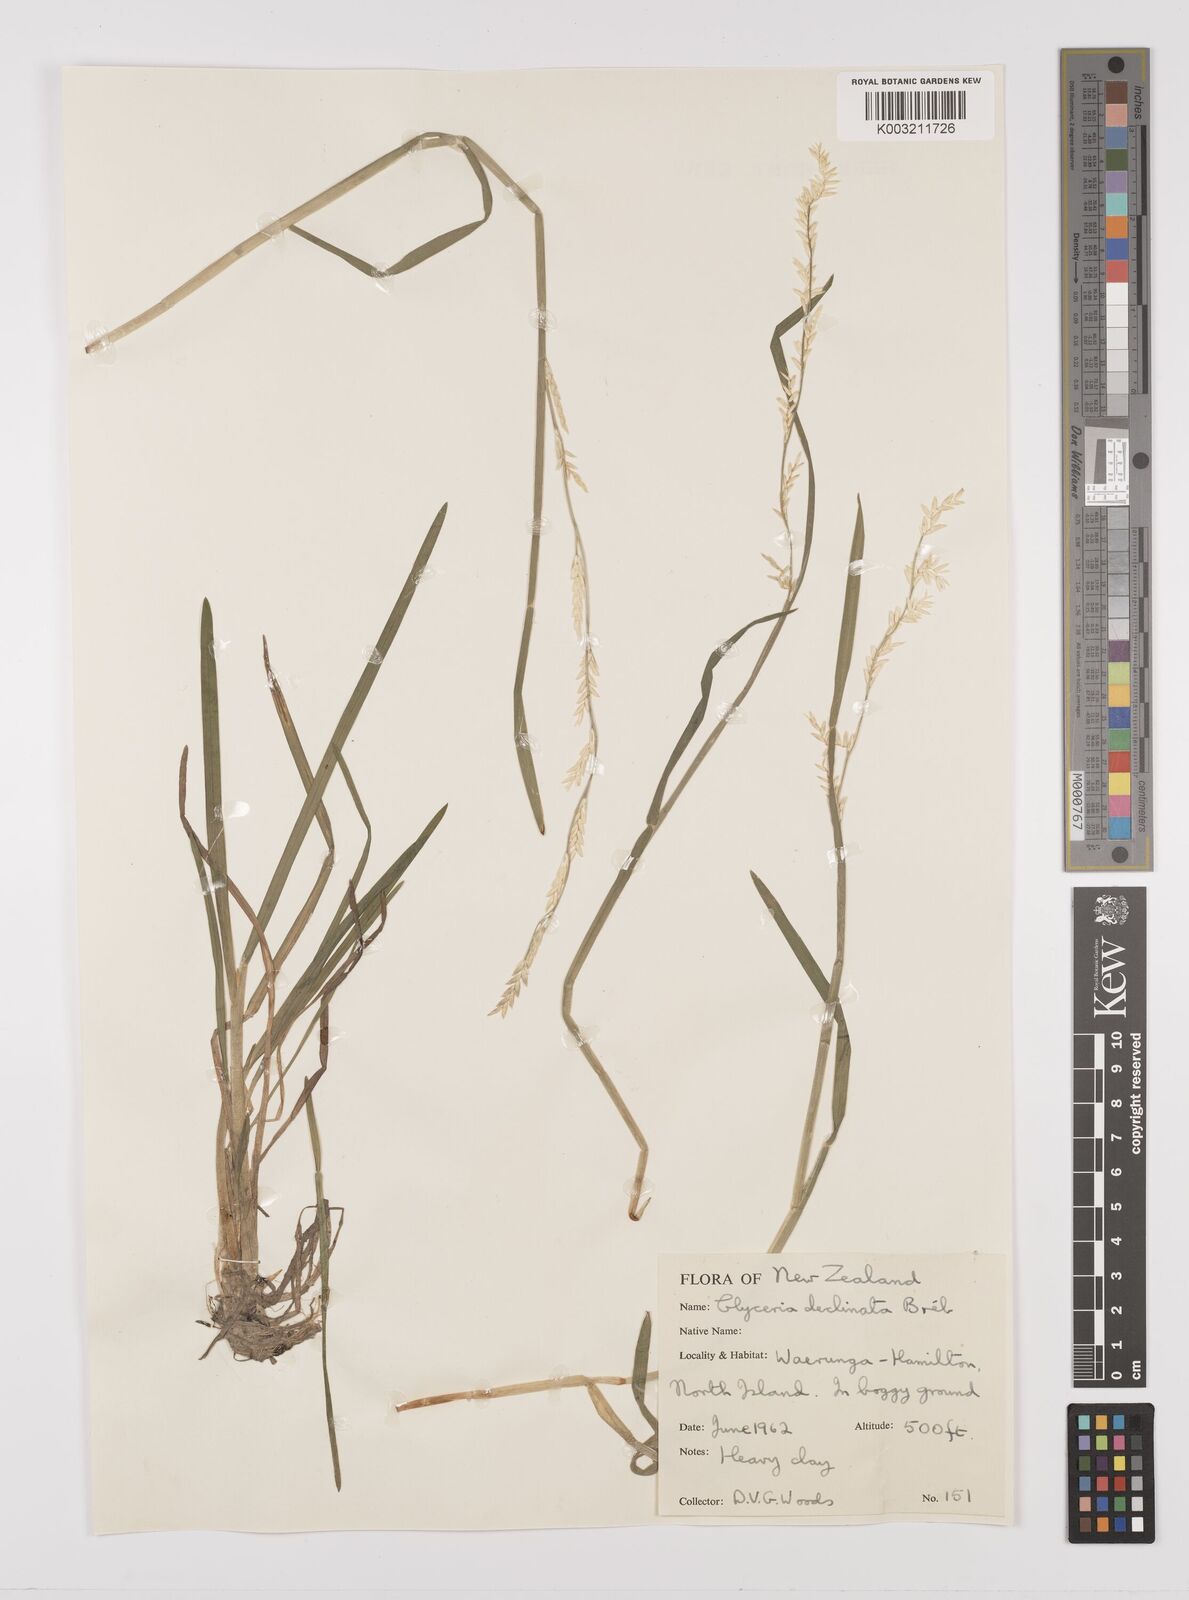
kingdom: Plantae
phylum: Tracheophyta
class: Liliopsida
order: Poales
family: Poaceae
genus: Glyceria
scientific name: Glyceria declinata
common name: Small sweet-grass
